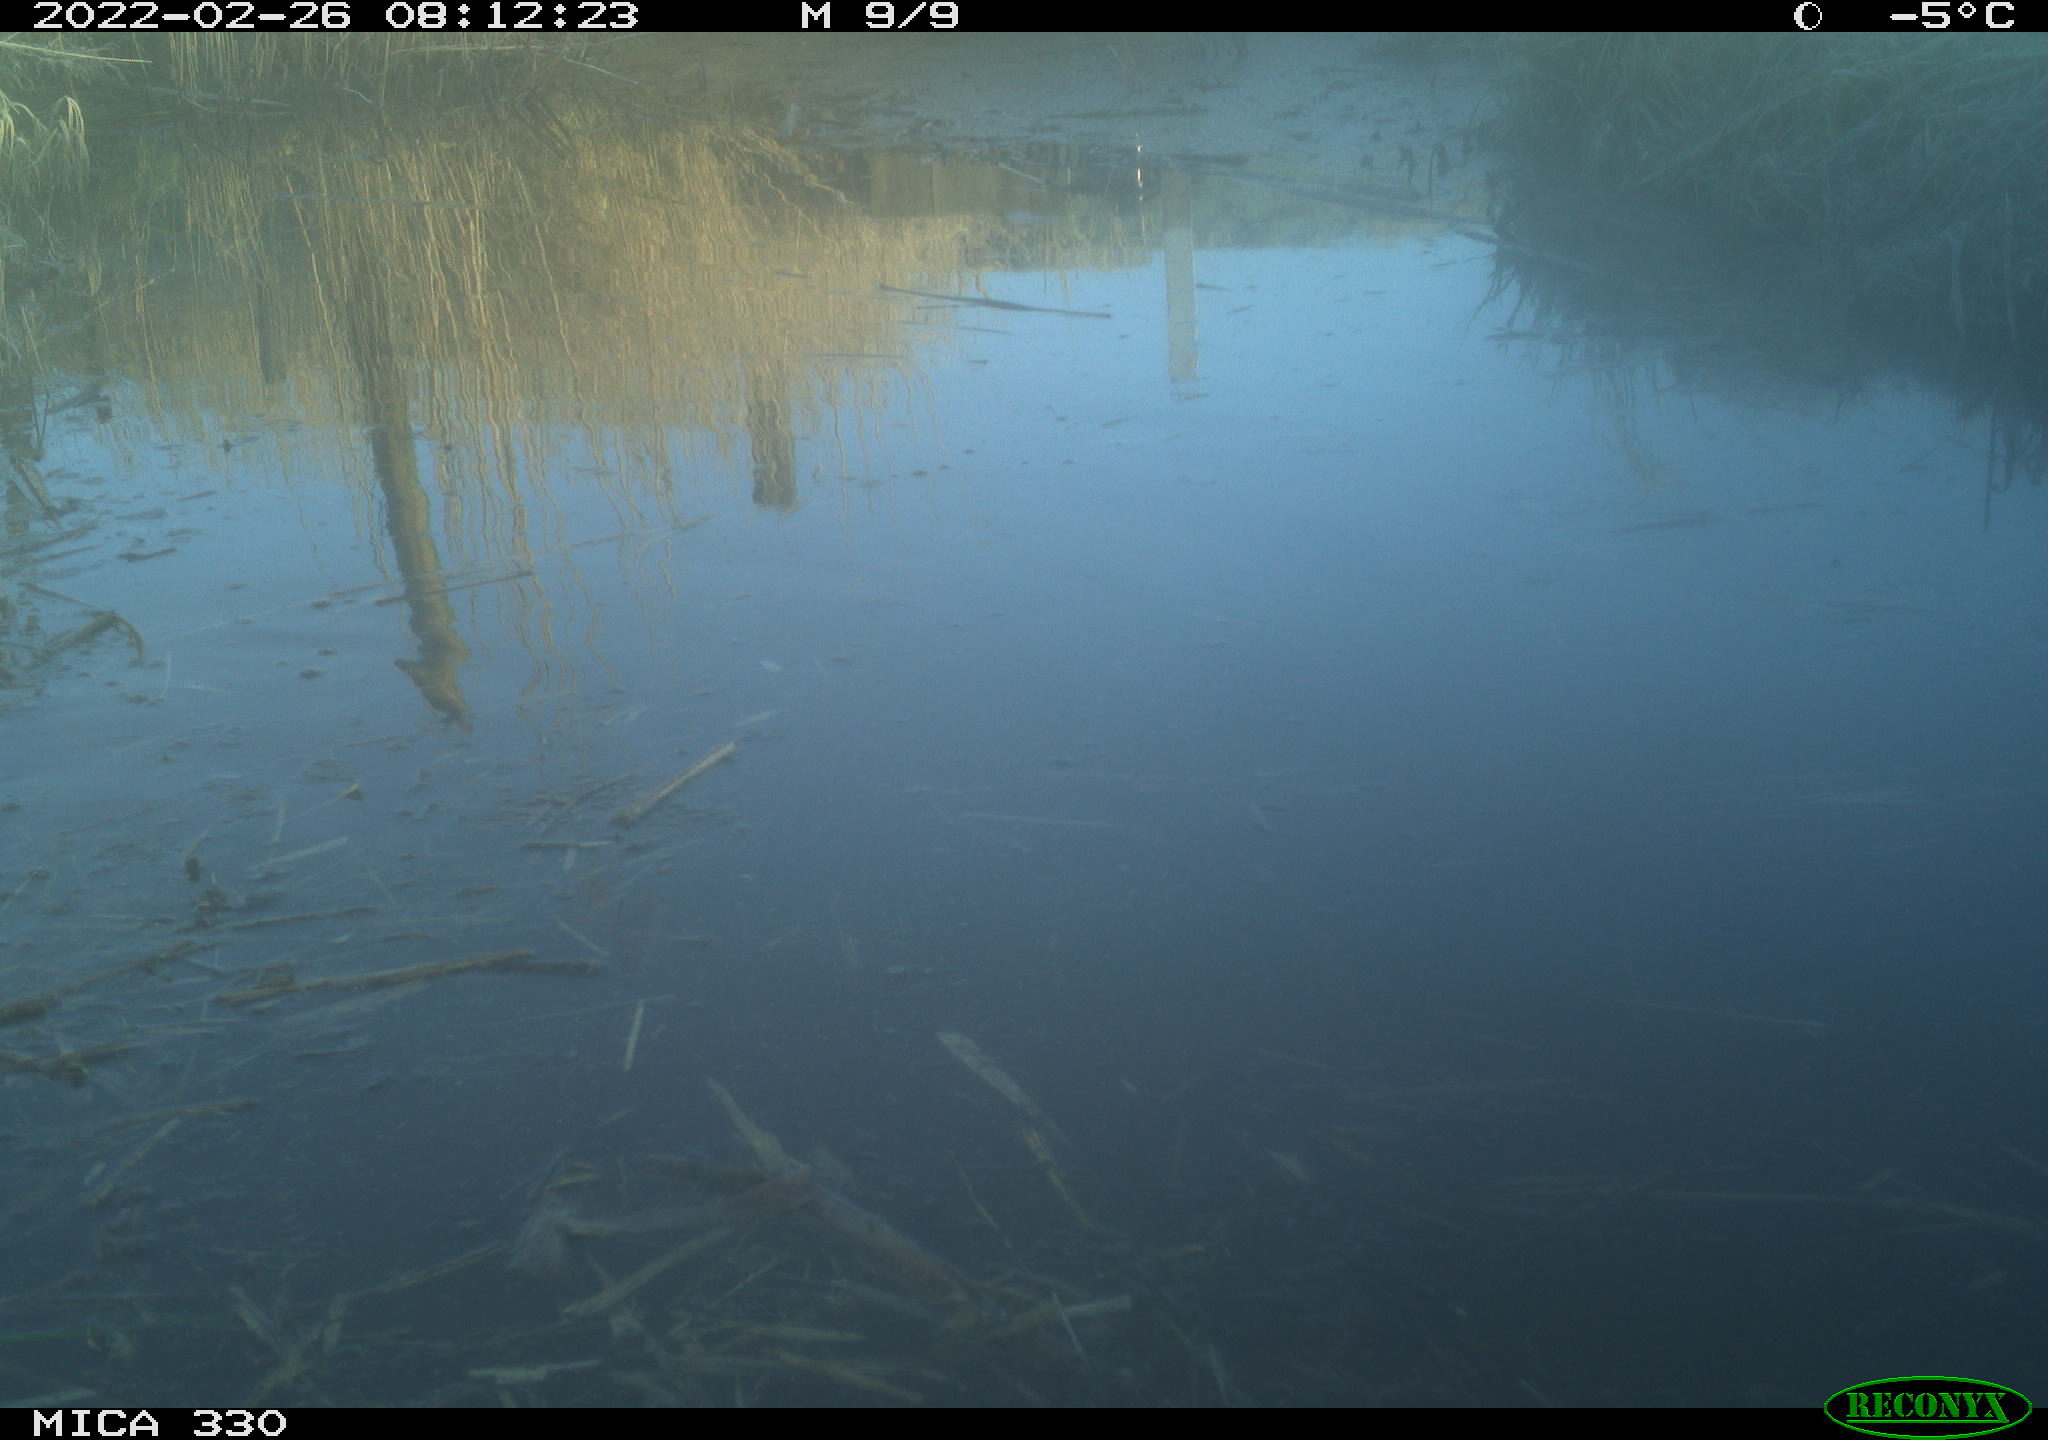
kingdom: Animalia
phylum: Chordata
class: Aves
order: Pelecaniformes
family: Ardeidae
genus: Ardea
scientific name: Ardea alba
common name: Great egret
